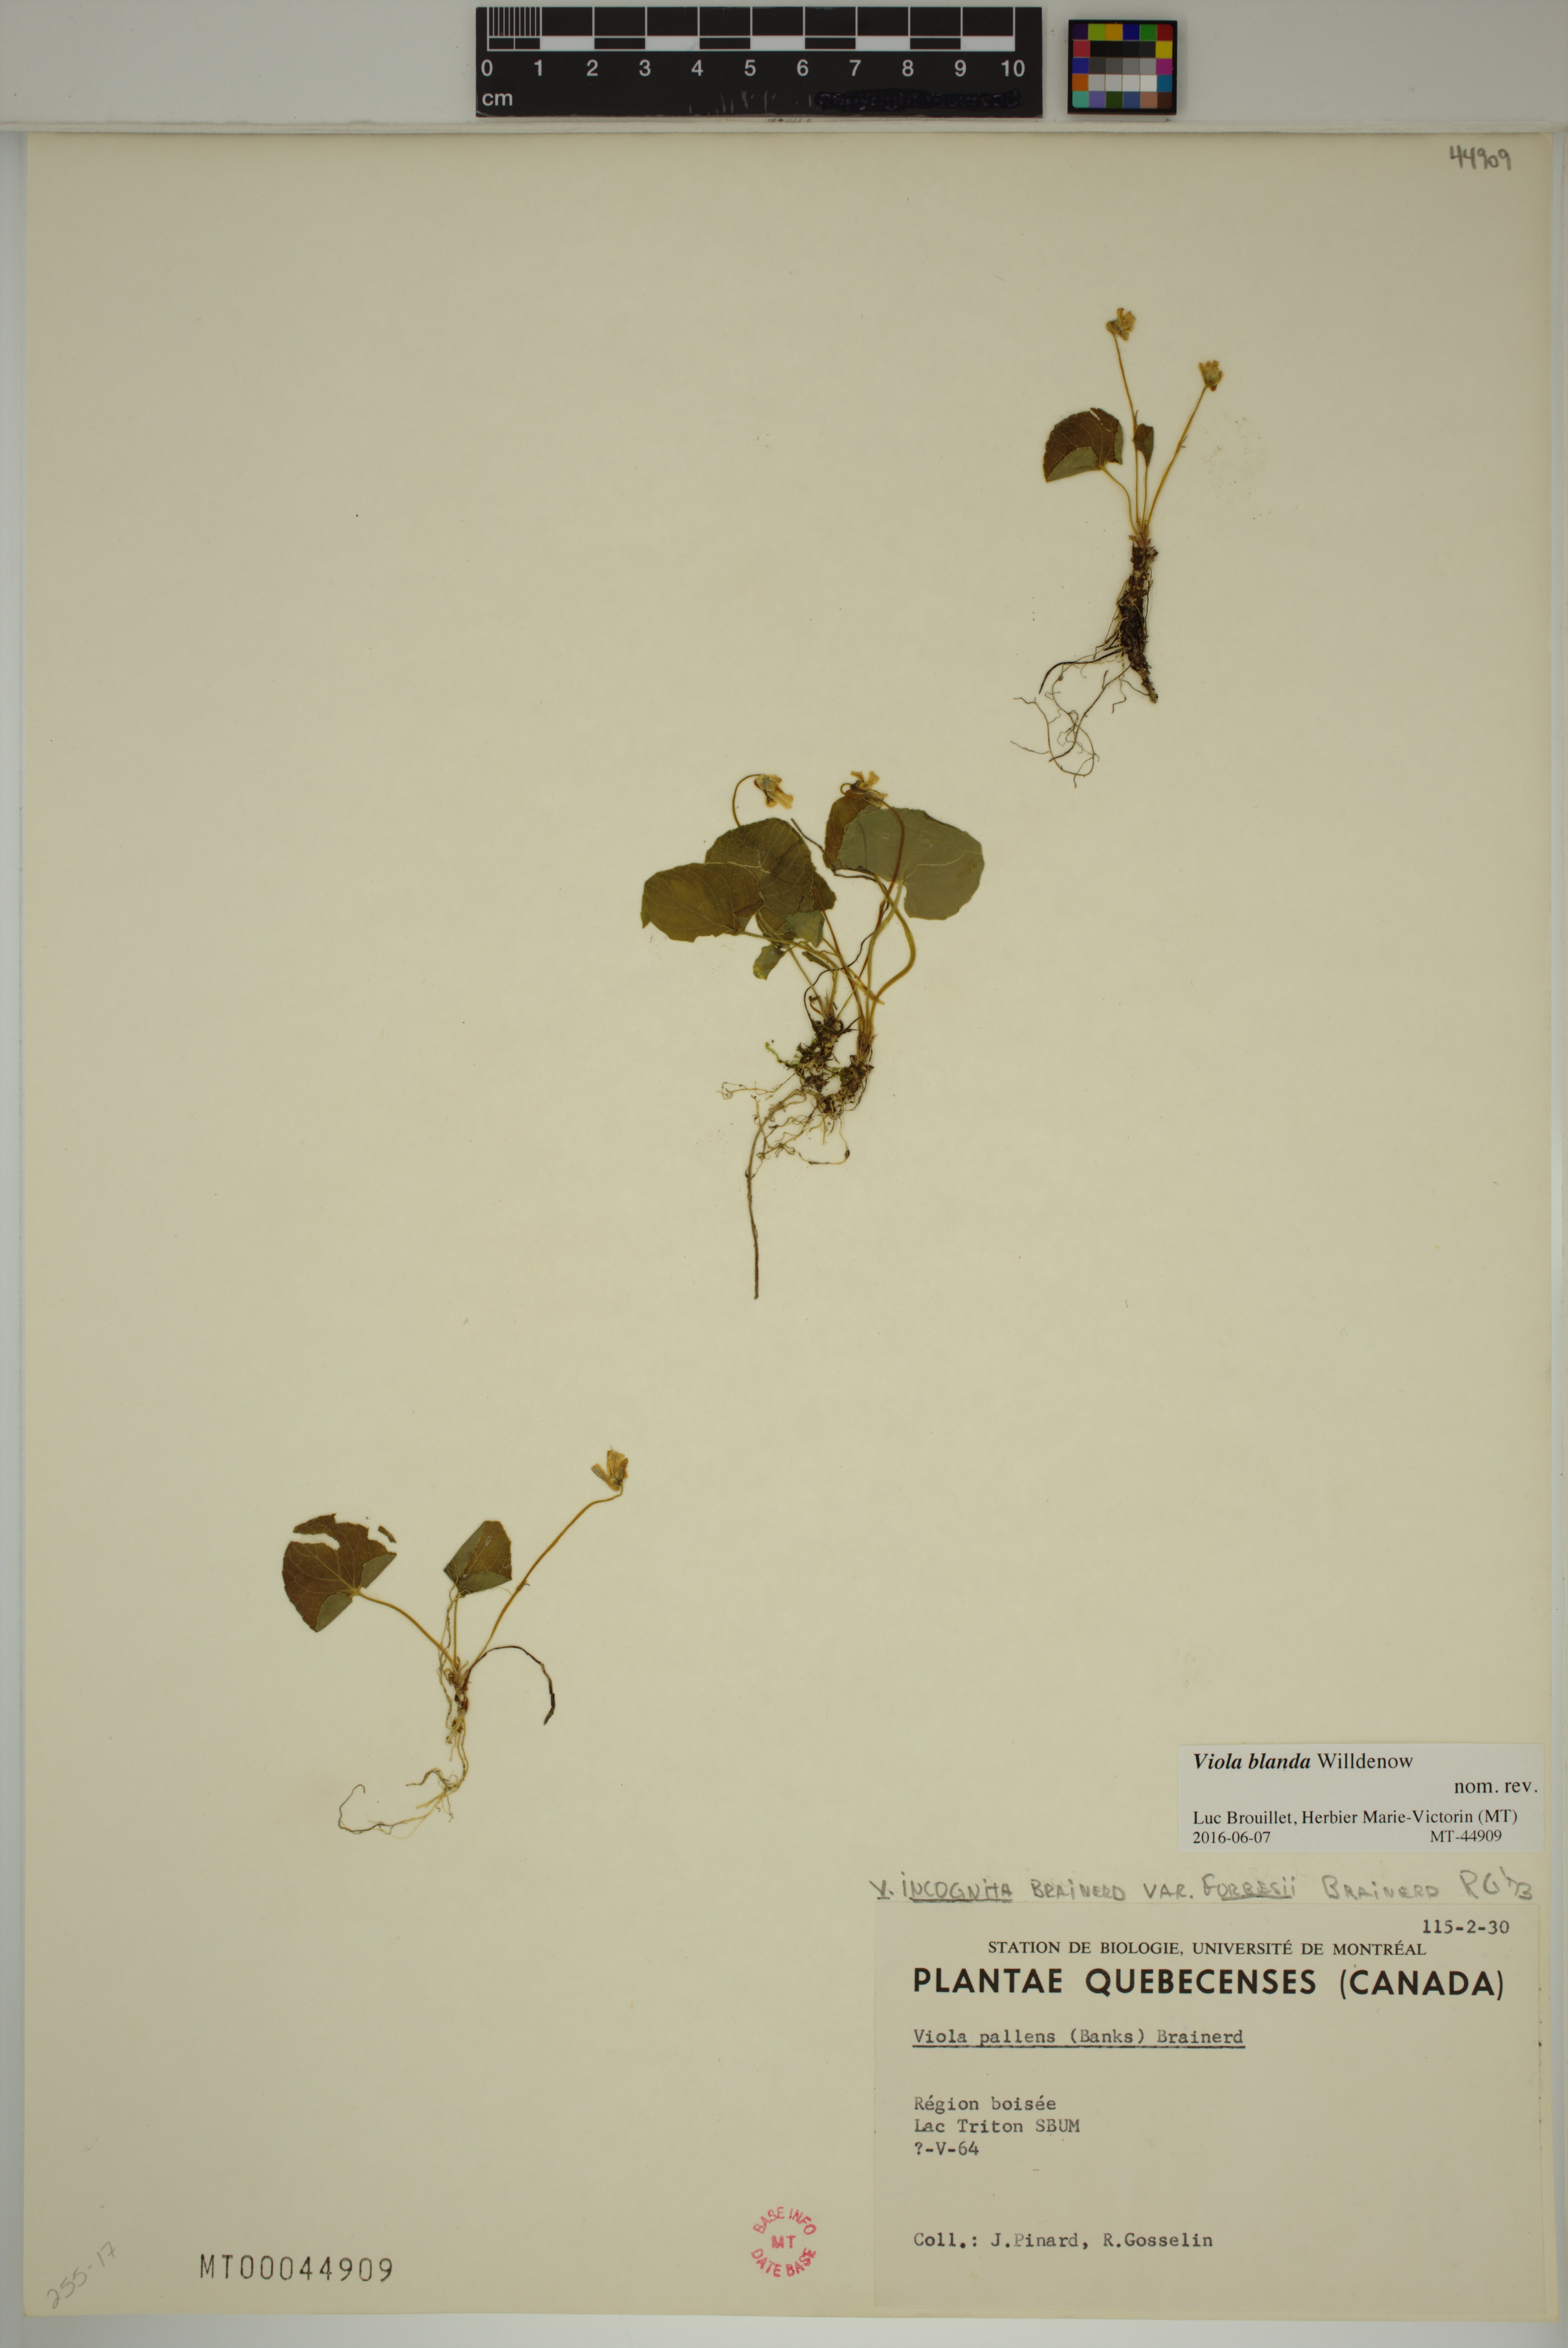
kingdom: Plantae
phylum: Tracheophyta
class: Magnoliopsida
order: Malpighiales
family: Violaceae
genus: Viola
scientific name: Viola blanda
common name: Sweet white violet
